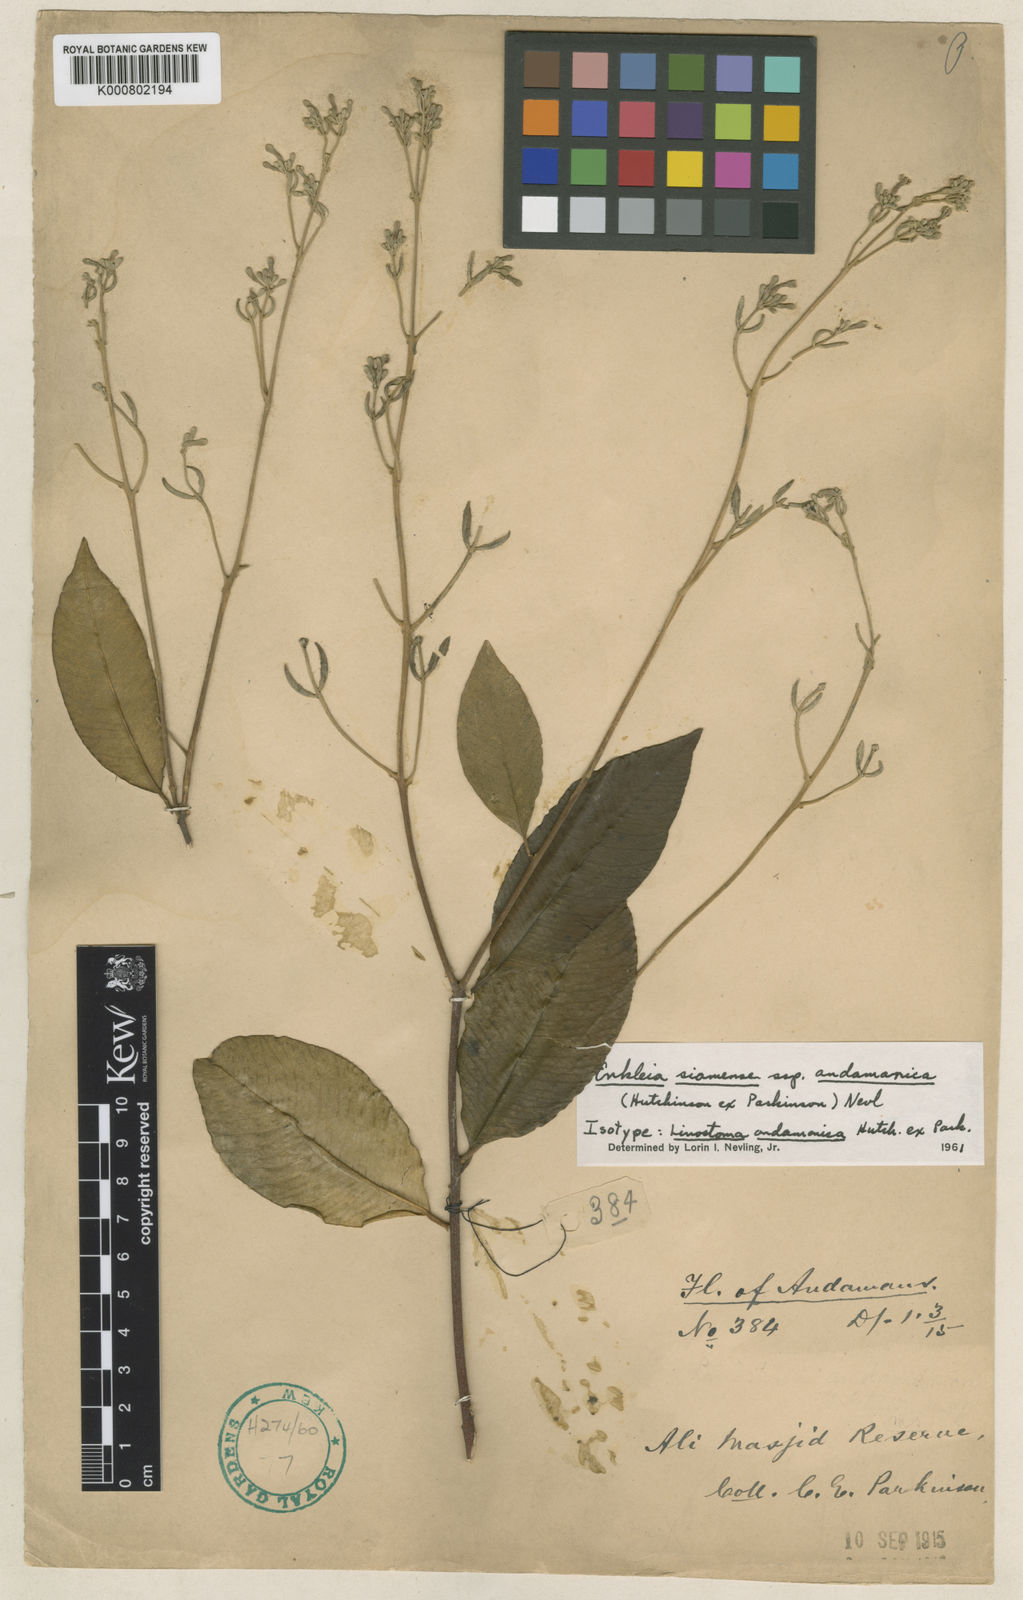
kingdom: Plantae
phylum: Tracheophyta
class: Magnoliopsida
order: Malvales
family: Thymelaeaceae
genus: Enkleia
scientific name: Enkleia malaccensis
